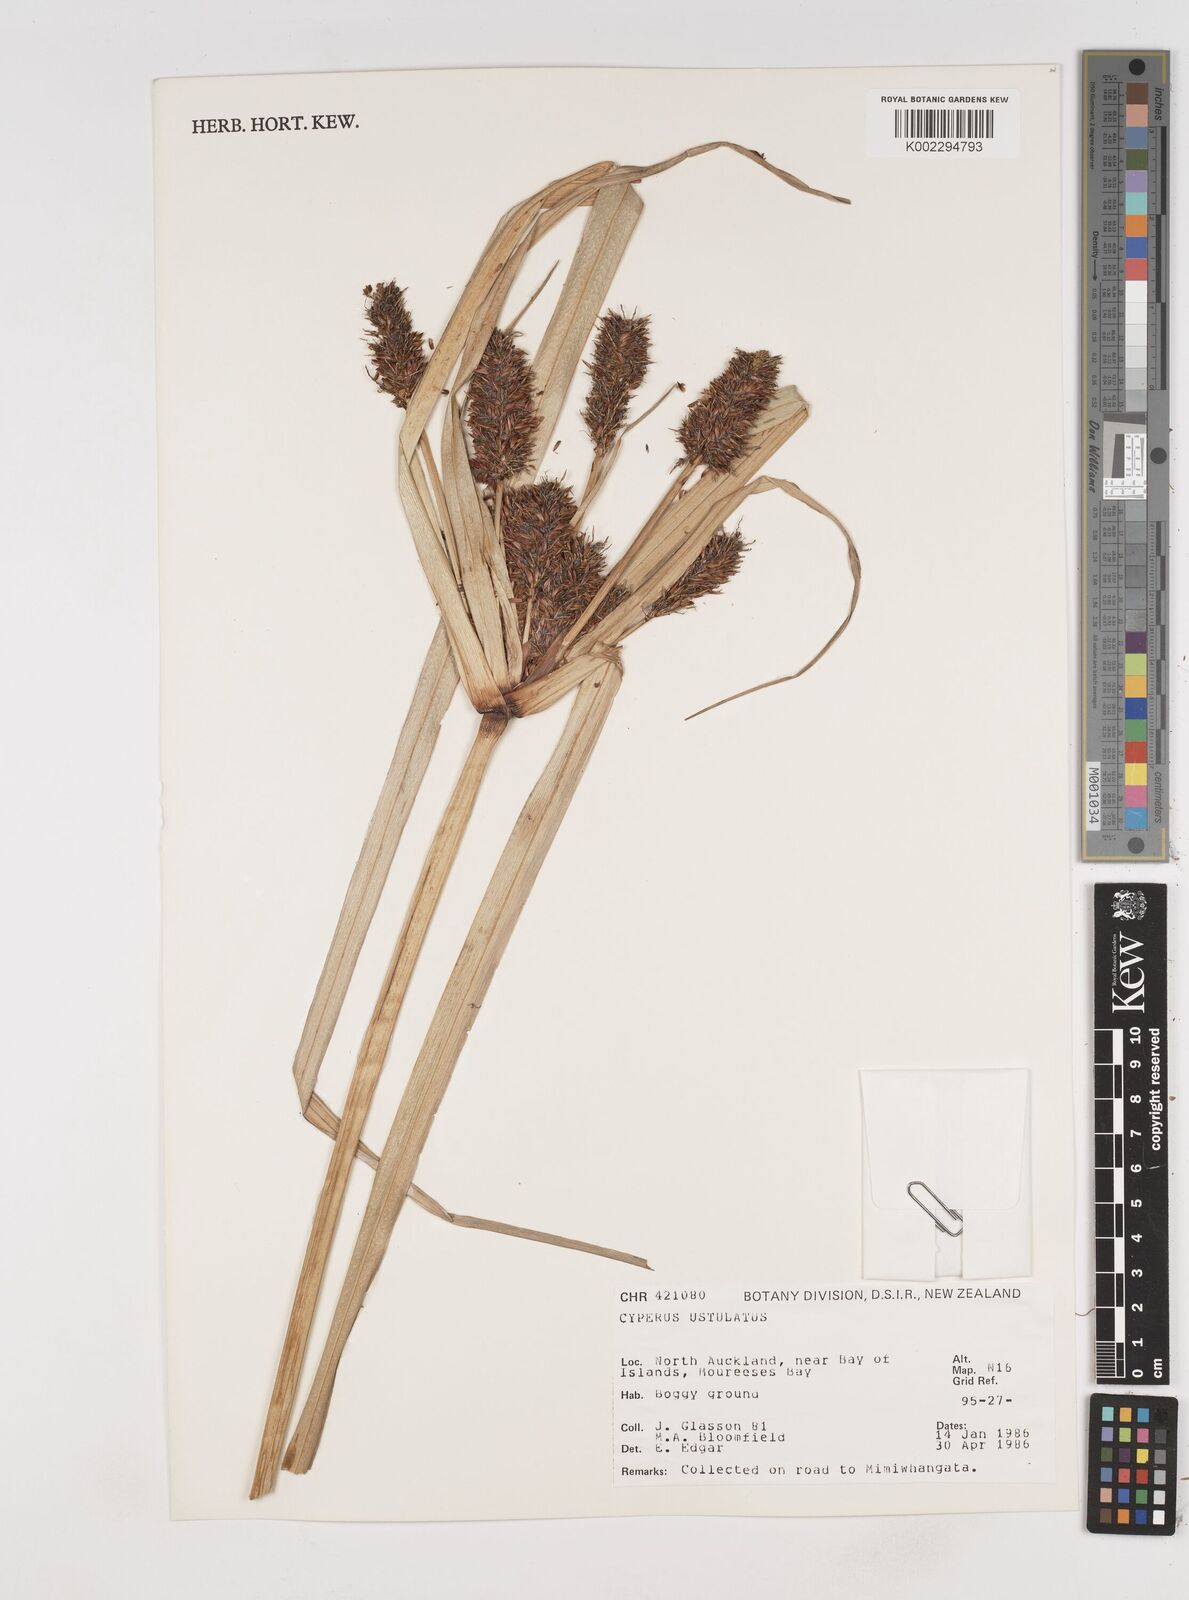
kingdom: Plantae
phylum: Tracheophyta
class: Liliopsida
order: Poales
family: Cyperaceae
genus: Cyperus
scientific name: Cyperus ustulatus
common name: Giant umbrella-sedge
